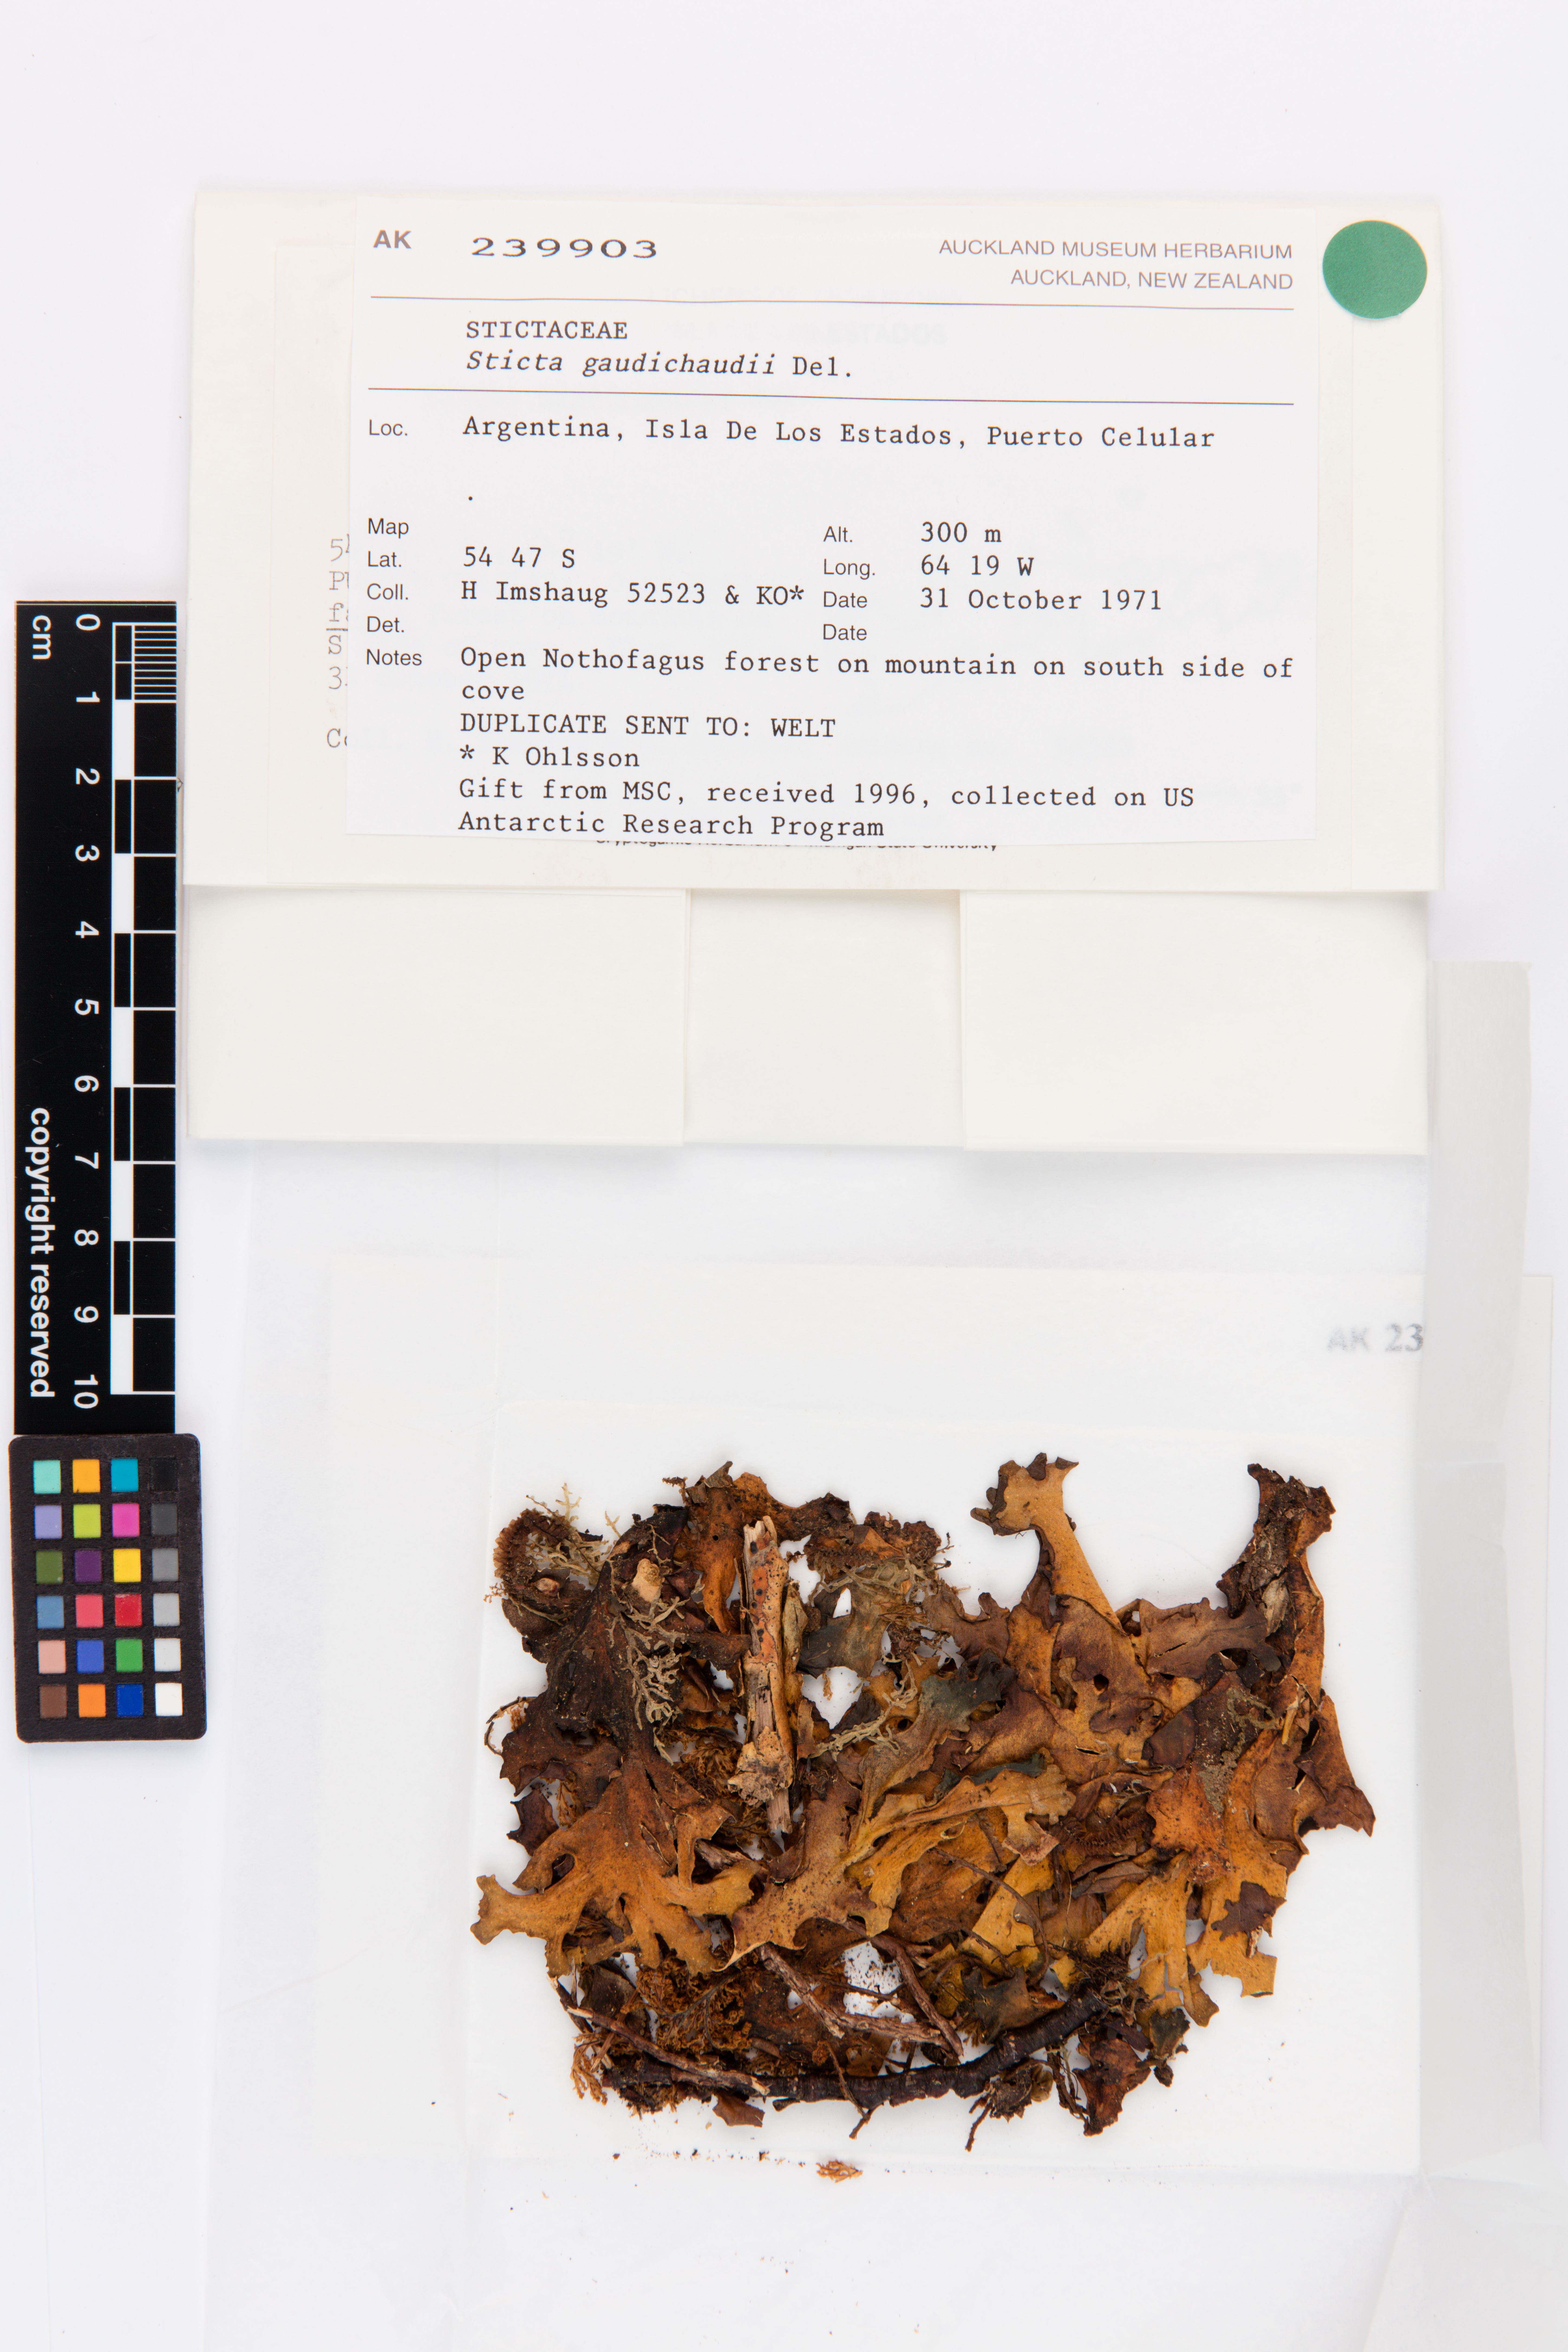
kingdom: Fungi
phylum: Ascomycota
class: Lecanoromycetes
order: Peltigerales
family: Lobariaceae
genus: Sticta
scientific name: Sticta gaudichaudii
